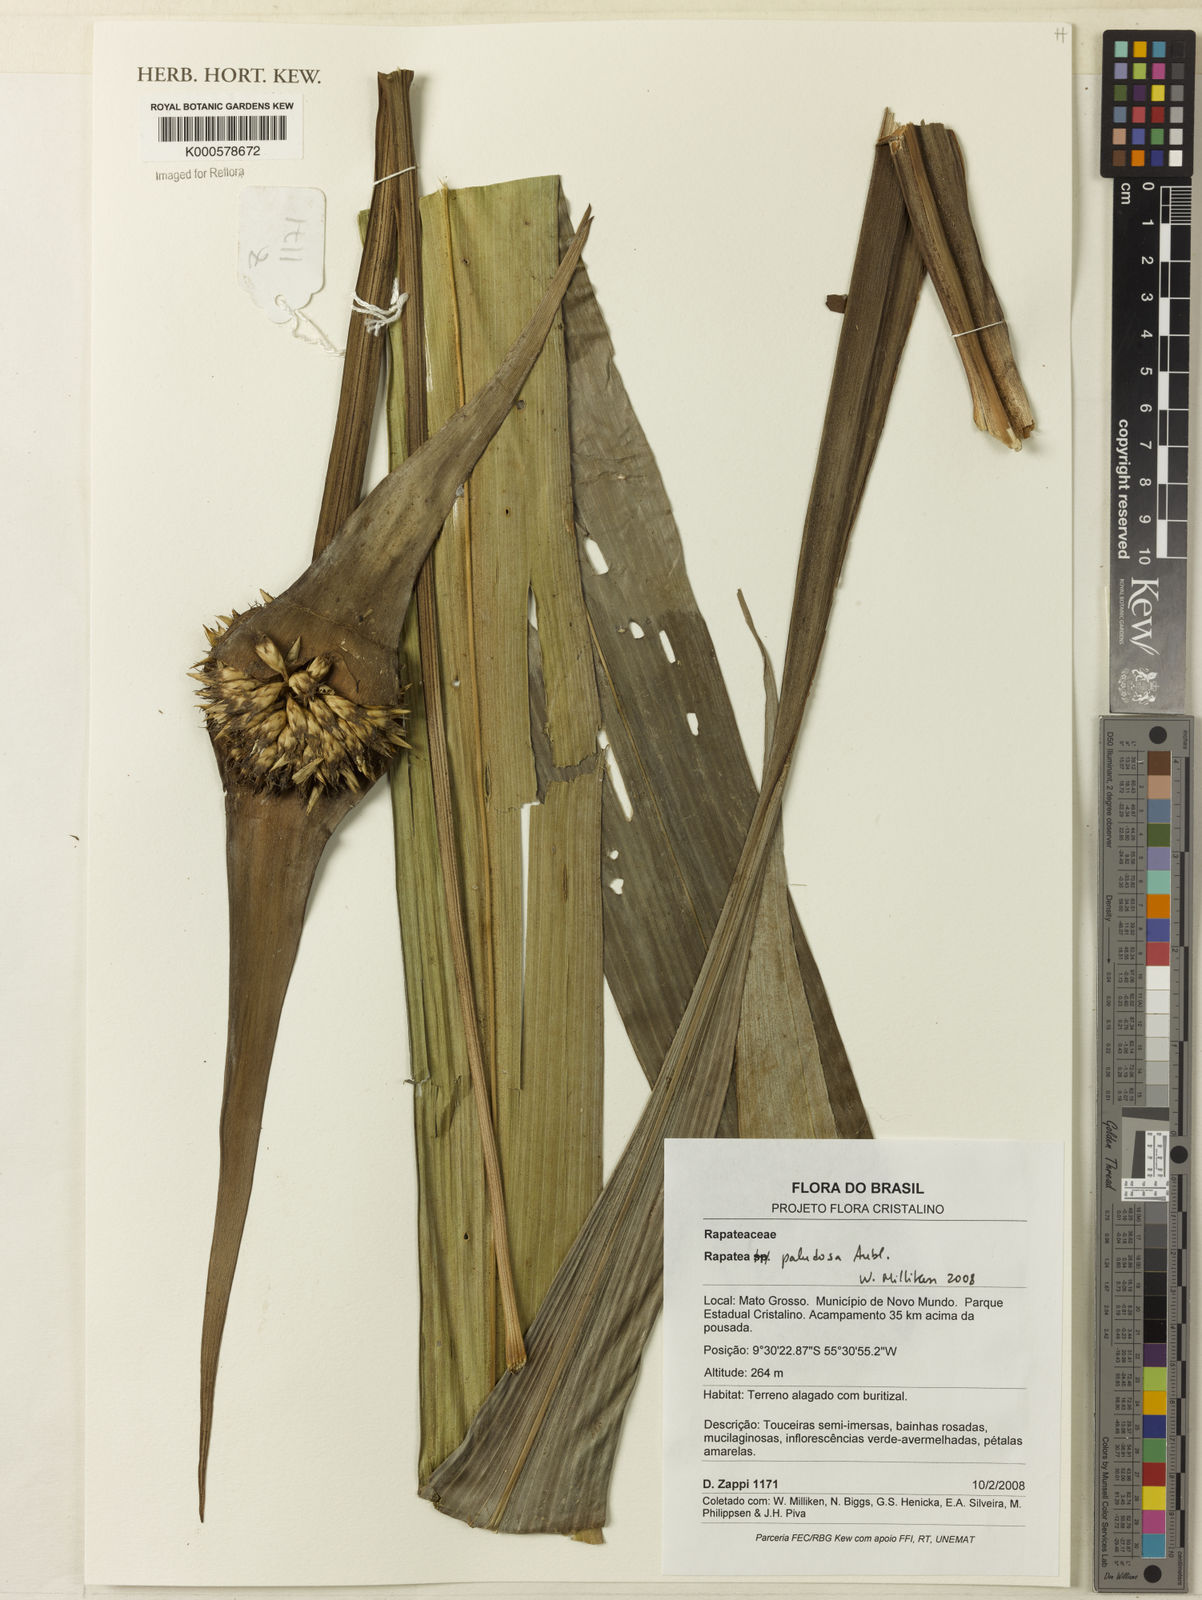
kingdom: Plantae
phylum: Tracheophyta
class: Liliopsida
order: Poales
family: Rapateaceae
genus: Rapatea
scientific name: Rapatea paludosa
